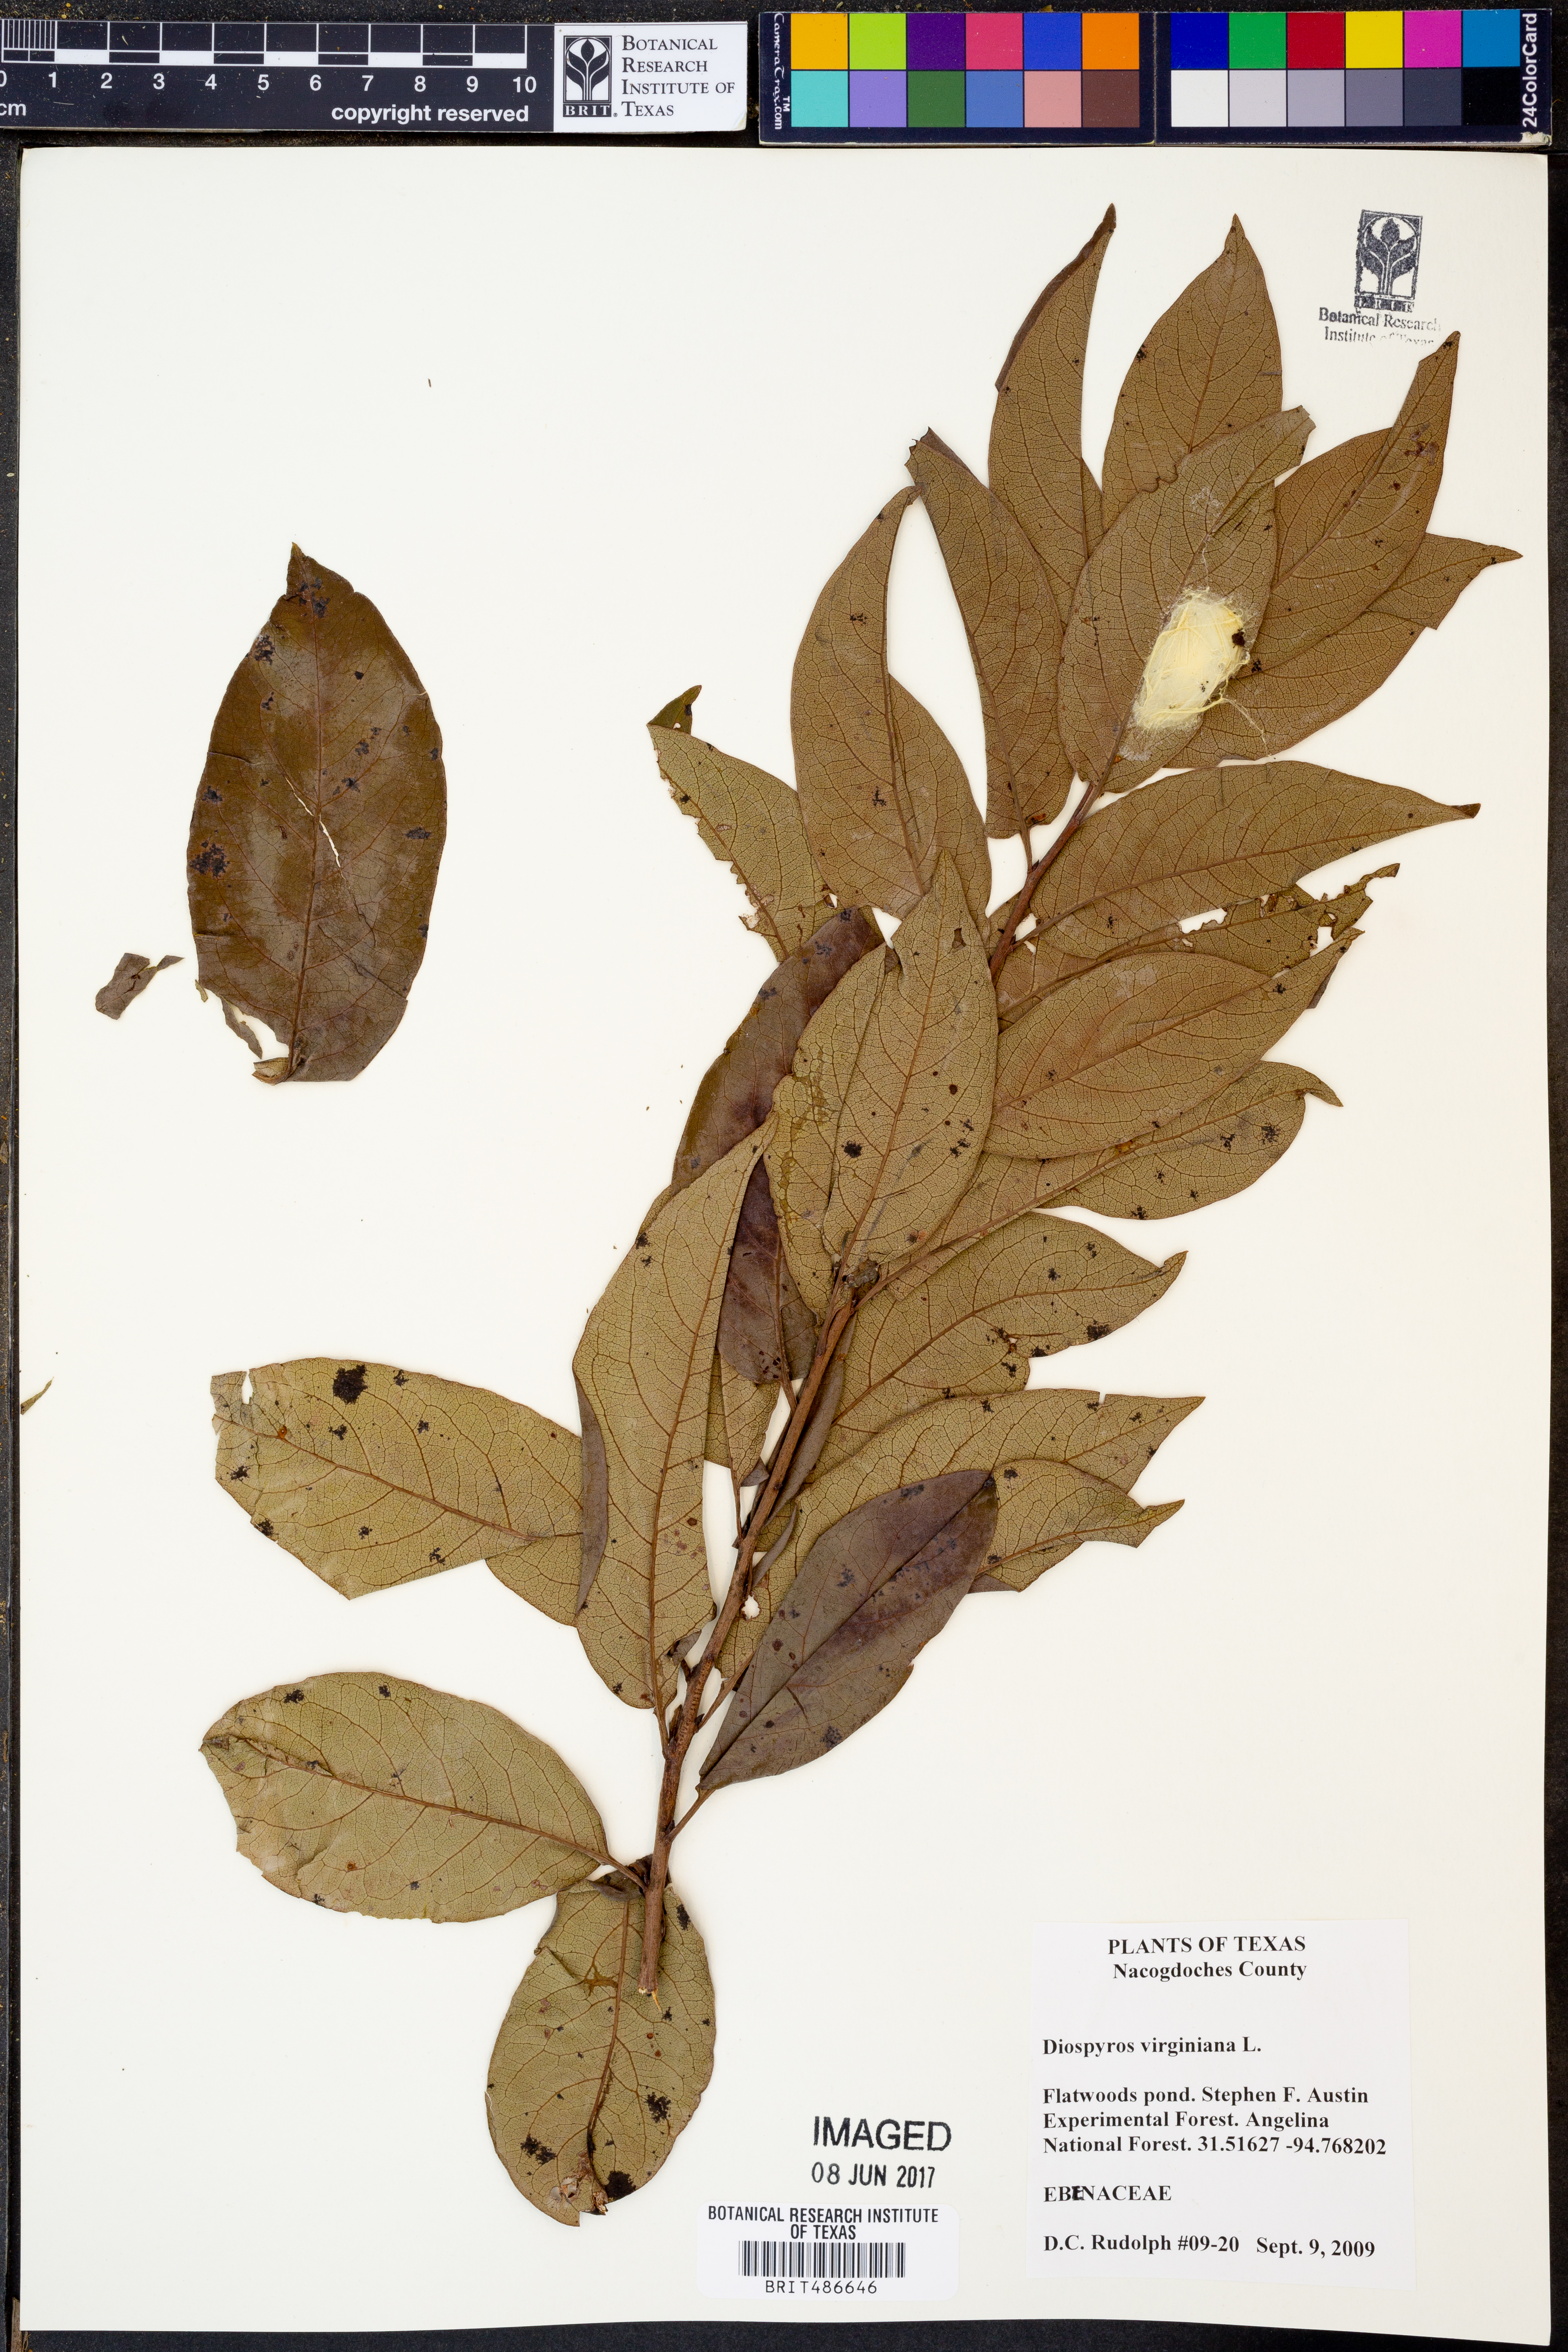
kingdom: Plantae
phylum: Tracheophyta
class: Magnoliopsida
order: Ericales
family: Ebenaceae
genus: Diospyros
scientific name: Diospyros virginiana
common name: Persimmon
